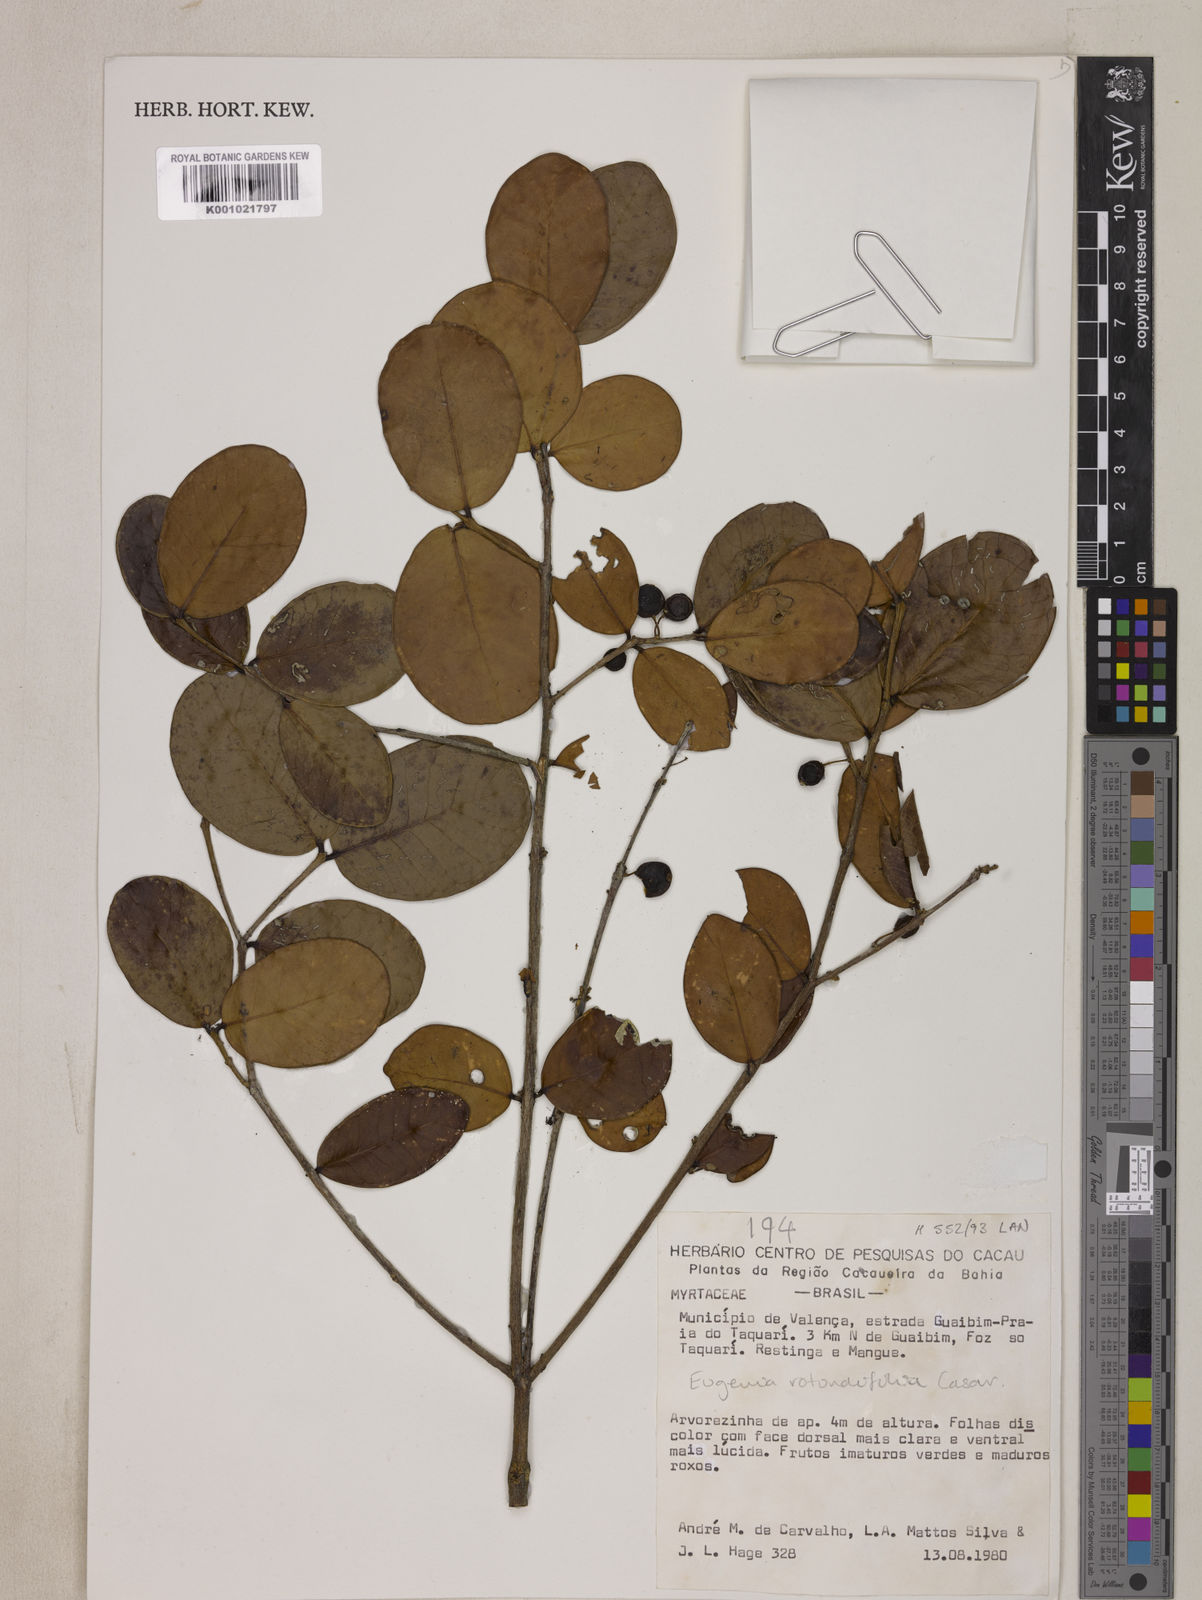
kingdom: Plantae
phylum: Tracheophyta
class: Magnoliopsida
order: Myrtales
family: Myrtaceae
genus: Eugenia
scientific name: Eugenia casarettoana
